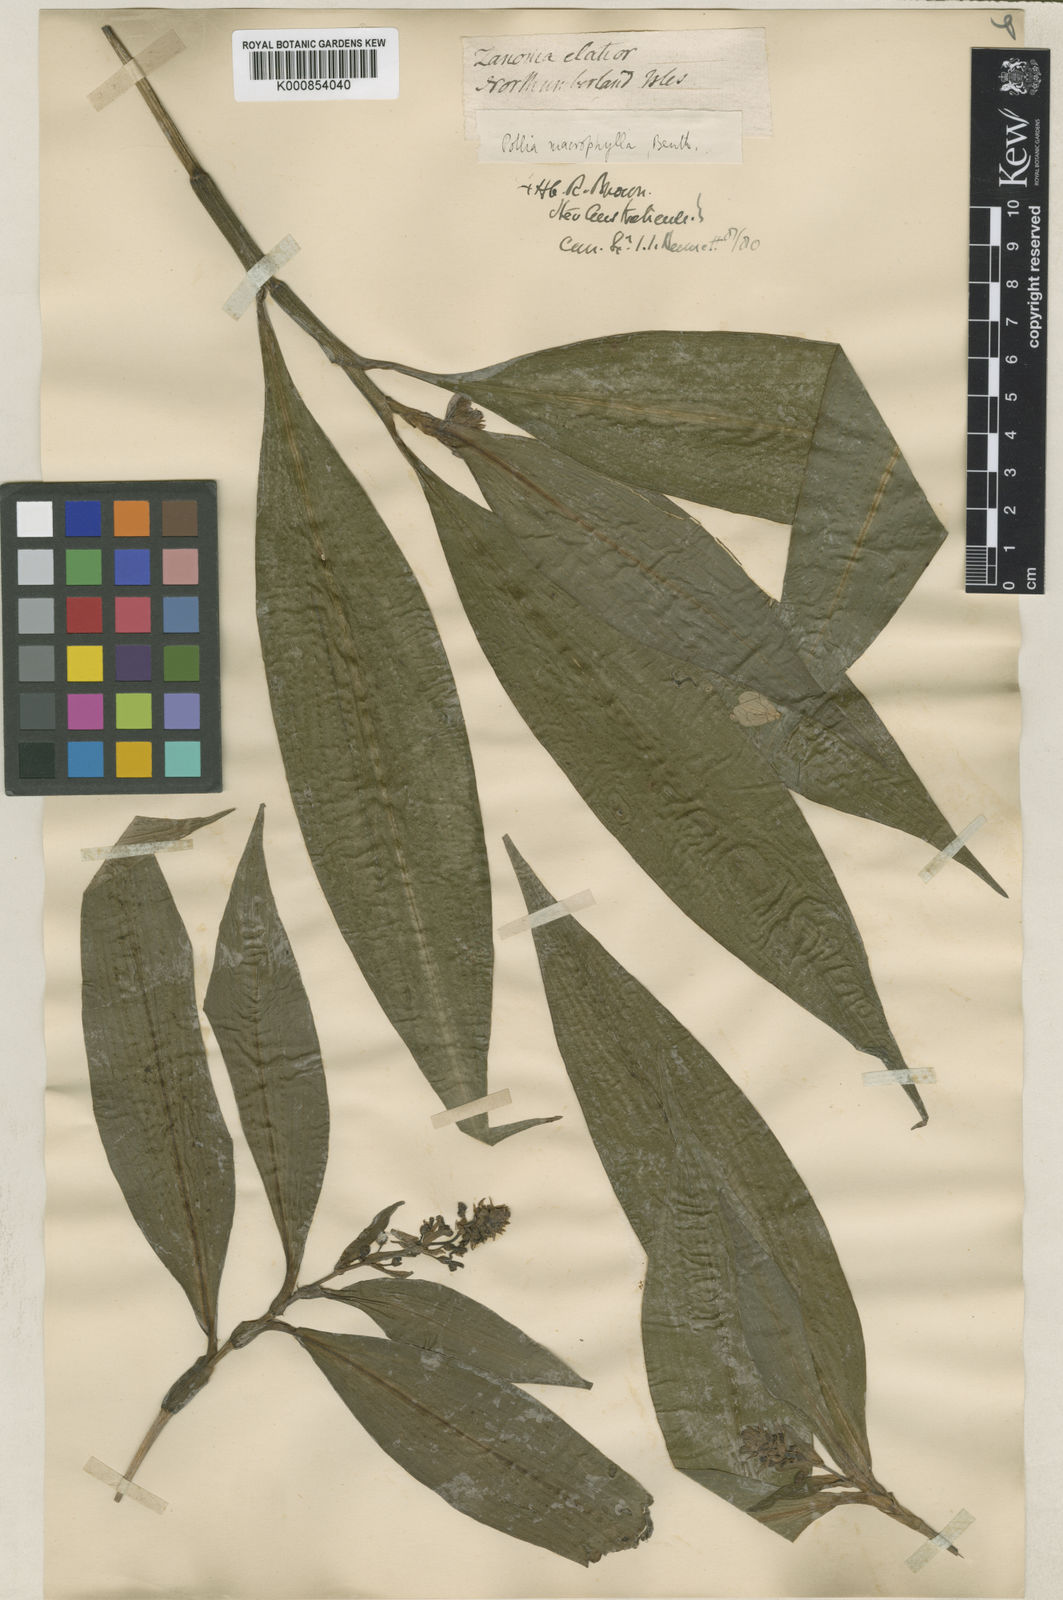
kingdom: Plantae
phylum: Tracheophyta
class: Liliopsida
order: Commelinales
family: Commelinaceae
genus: Pollia
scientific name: Pollia macrophylla
